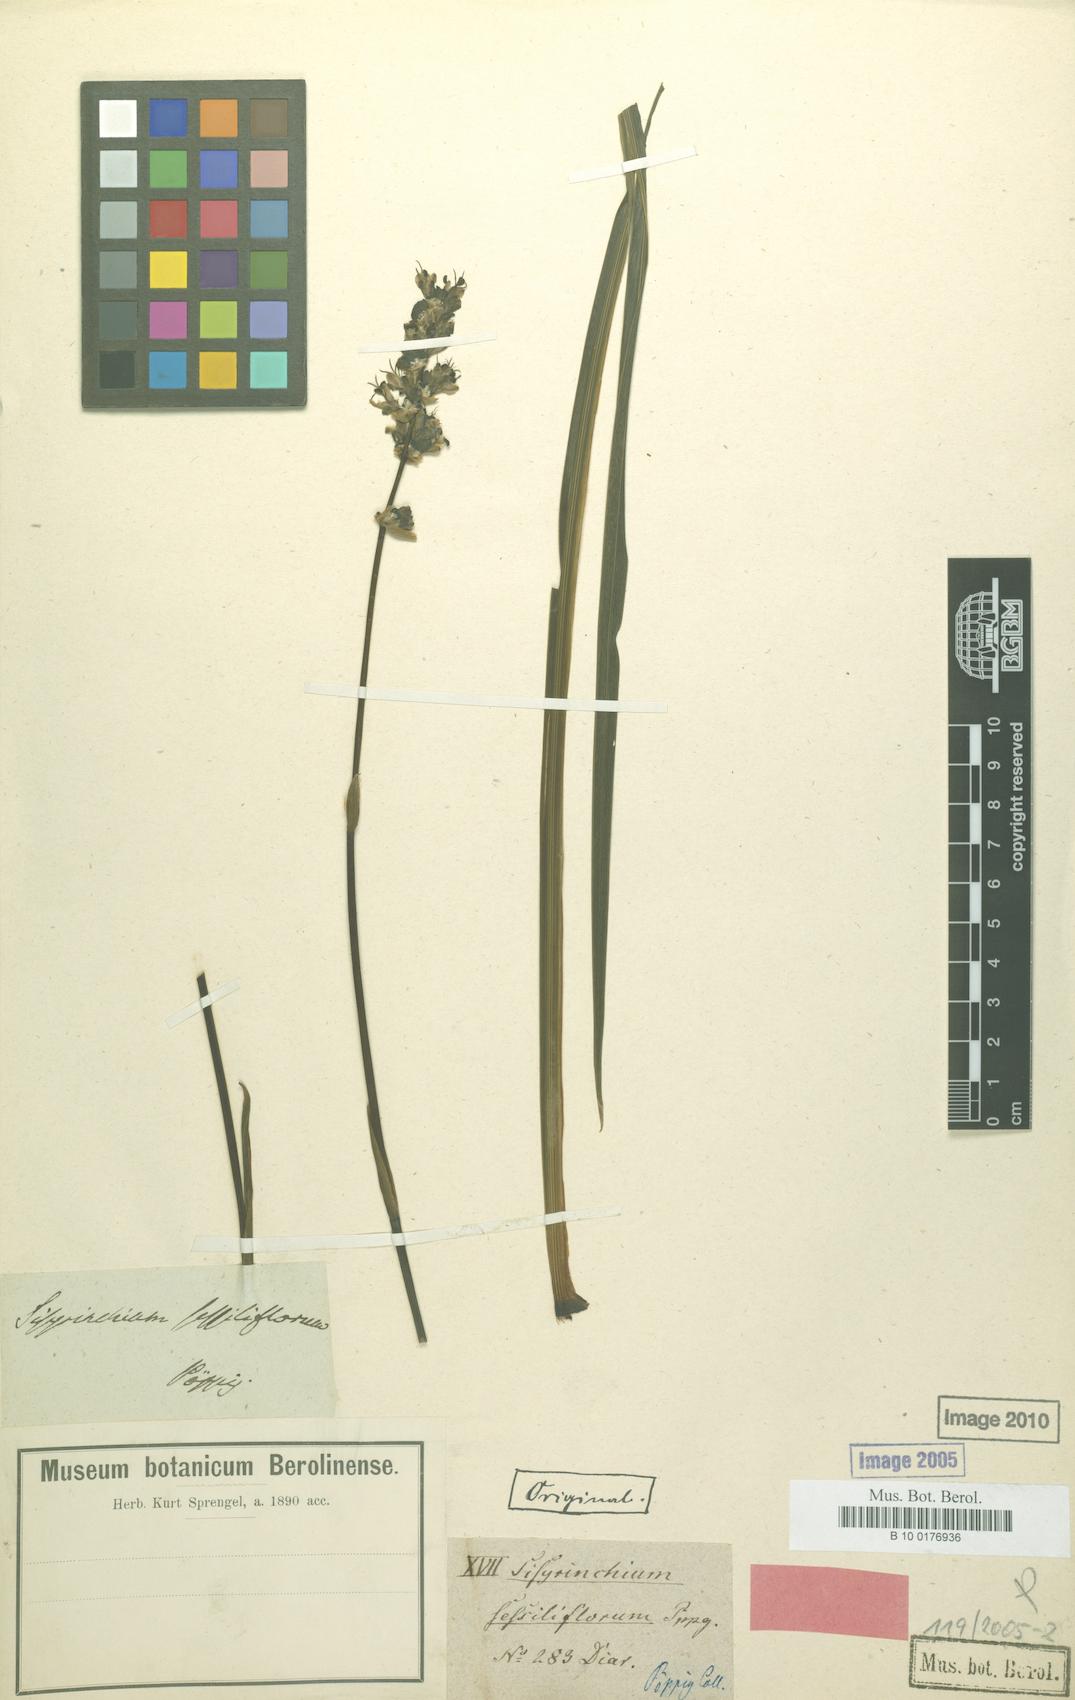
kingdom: Plantae
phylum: Tracheophyta
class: Liliopsida
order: Asparagales
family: Iridaceae
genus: Libertia
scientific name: Libertia sessiliflora
